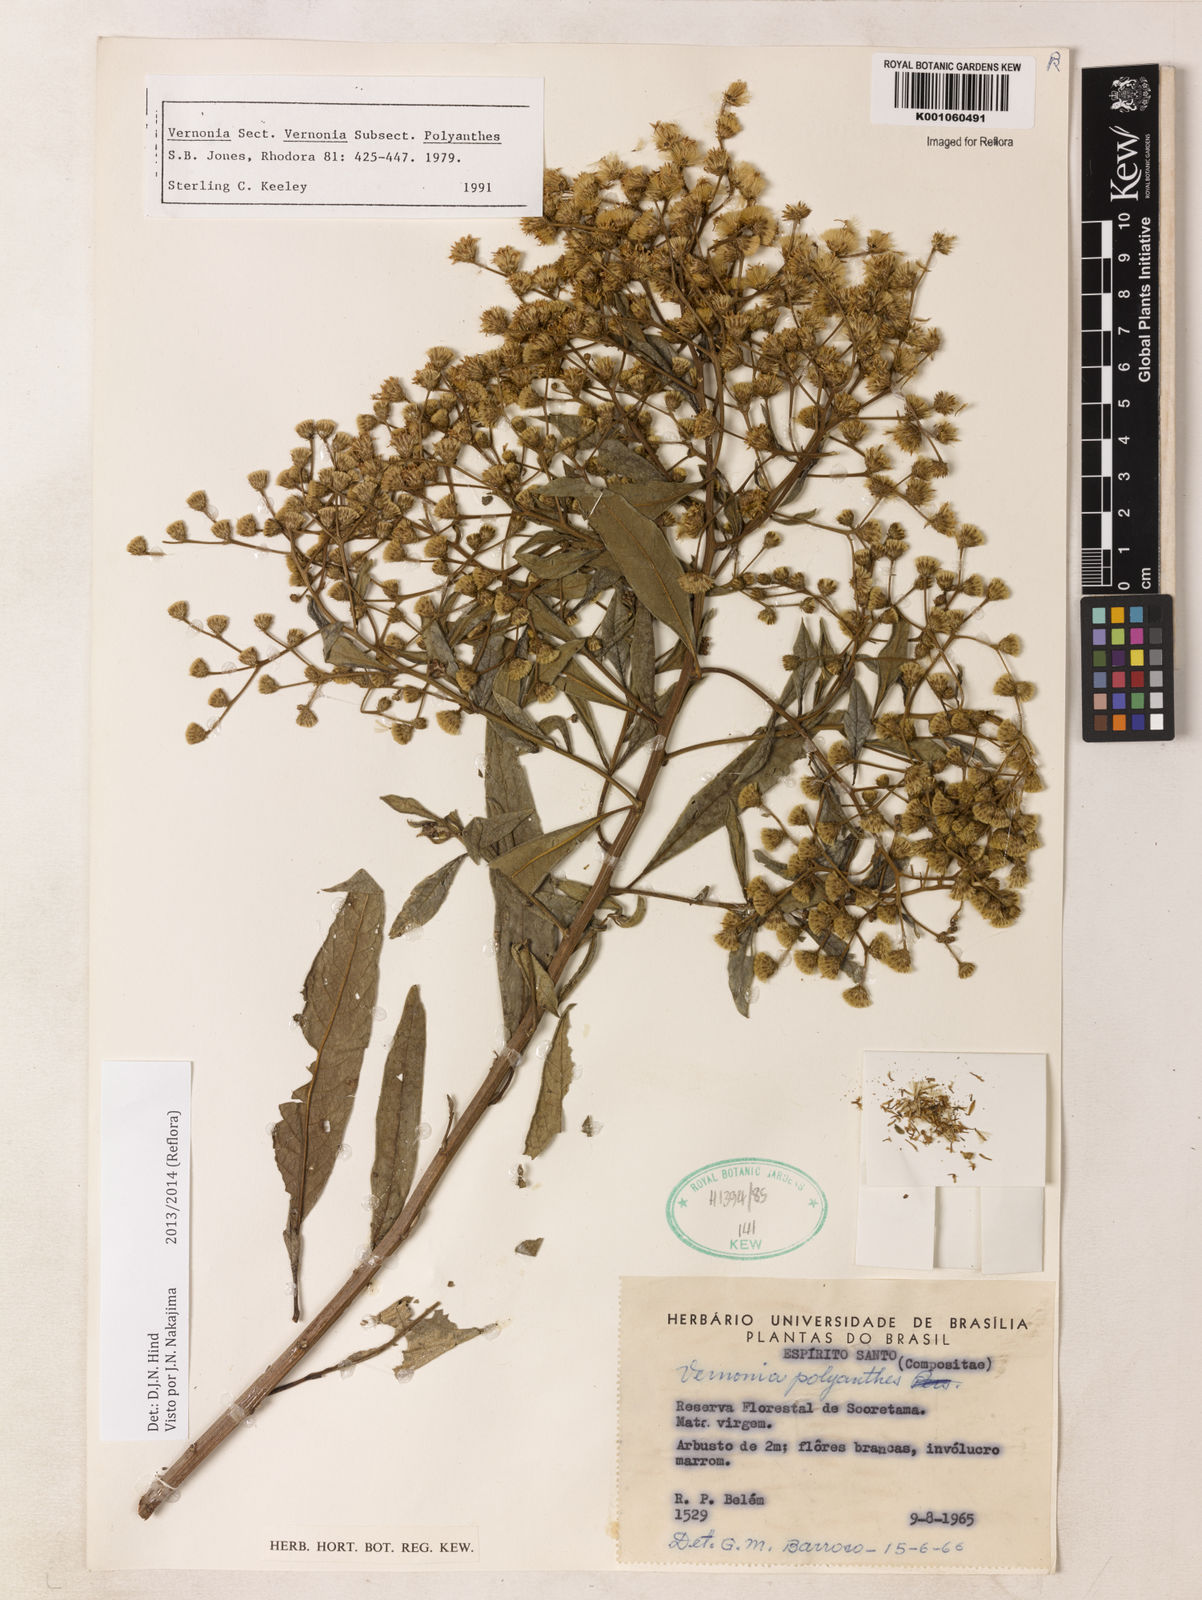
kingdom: Plantae
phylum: Tracheophyta
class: Magnoliopsida
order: Asterales
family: Asteraceae
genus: Vernonanthura
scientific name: Vernonanthura polyanthes
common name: Tree aster
